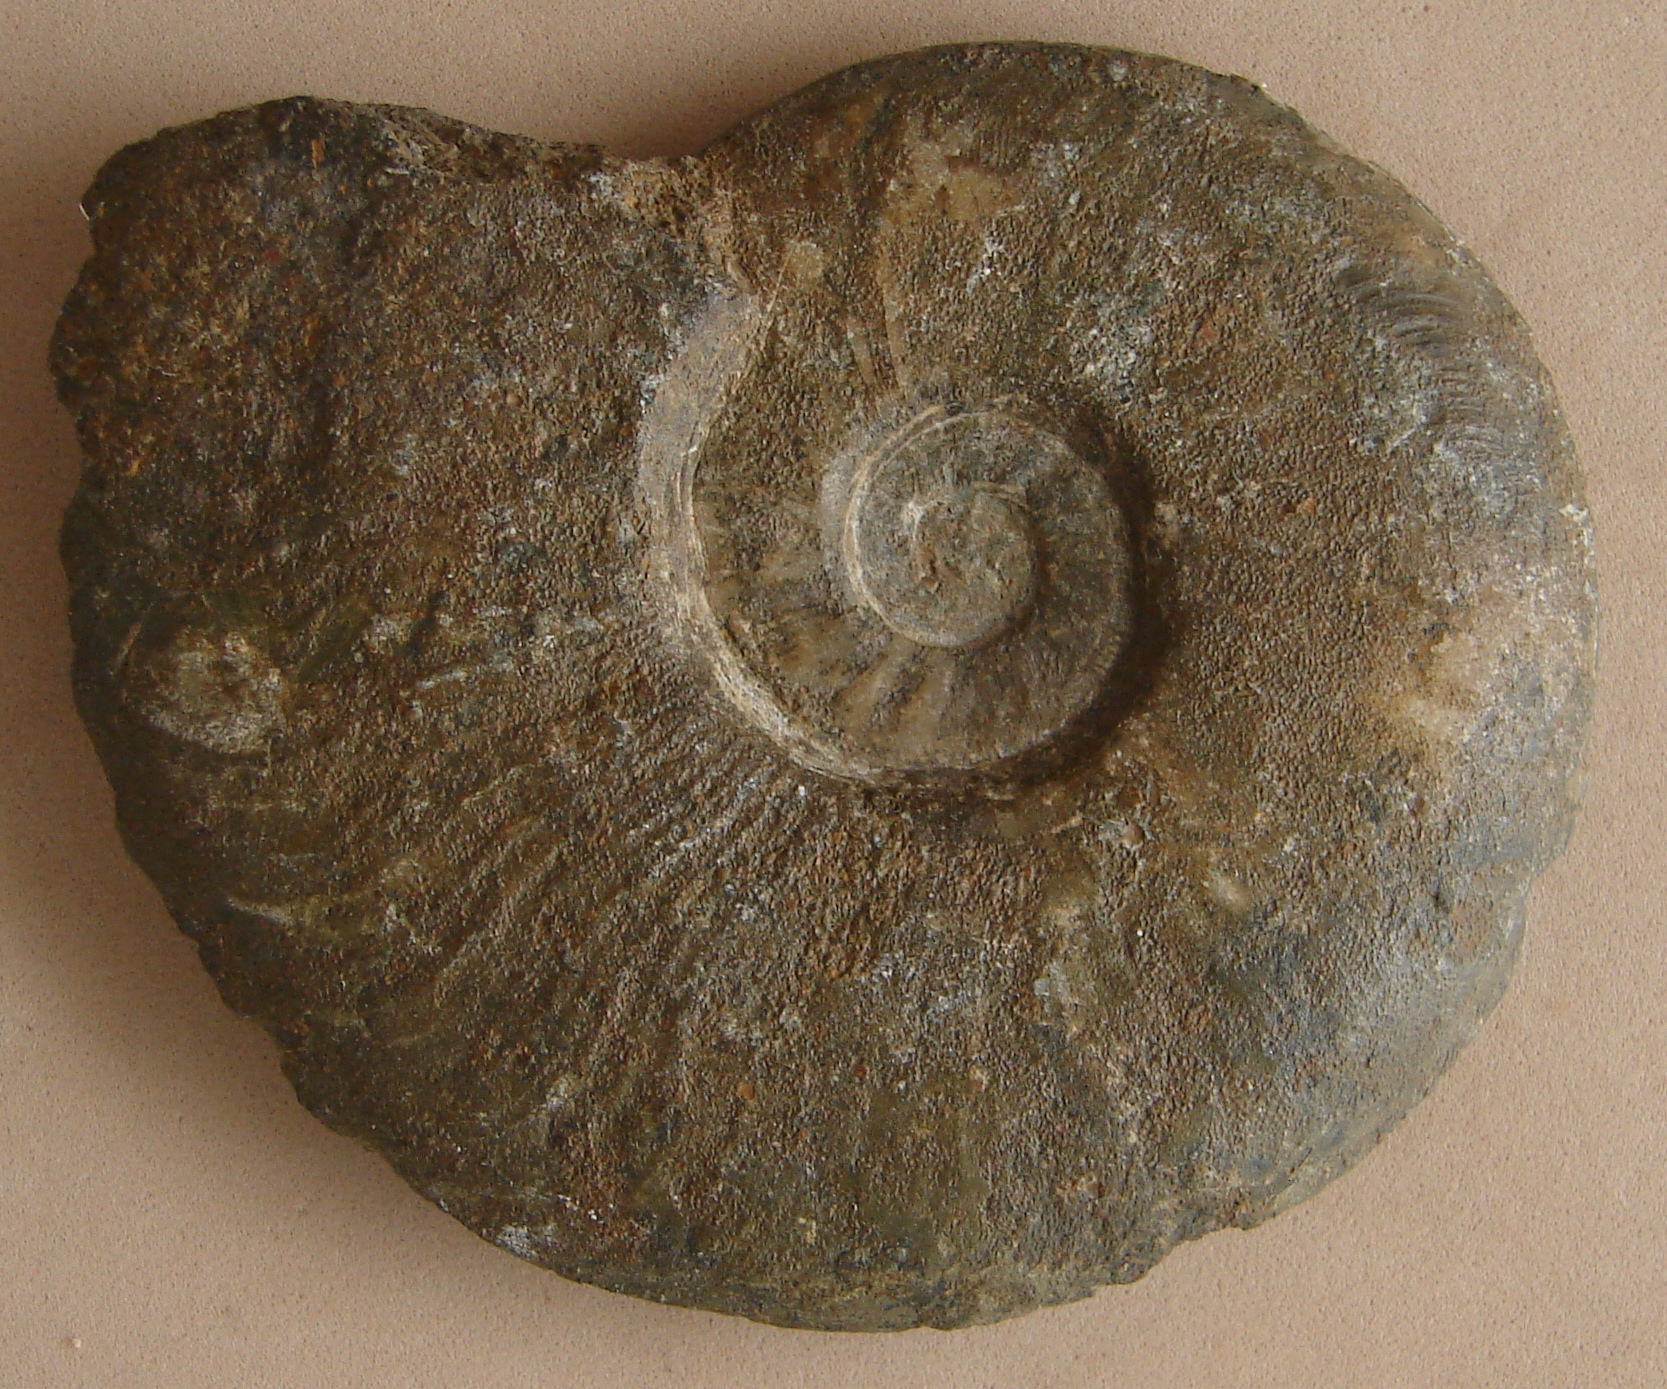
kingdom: Animalia
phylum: Mollusca
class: Cephalopoda
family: Hildoceratidae
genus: Pleydellia
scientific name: Pleydellia misera
